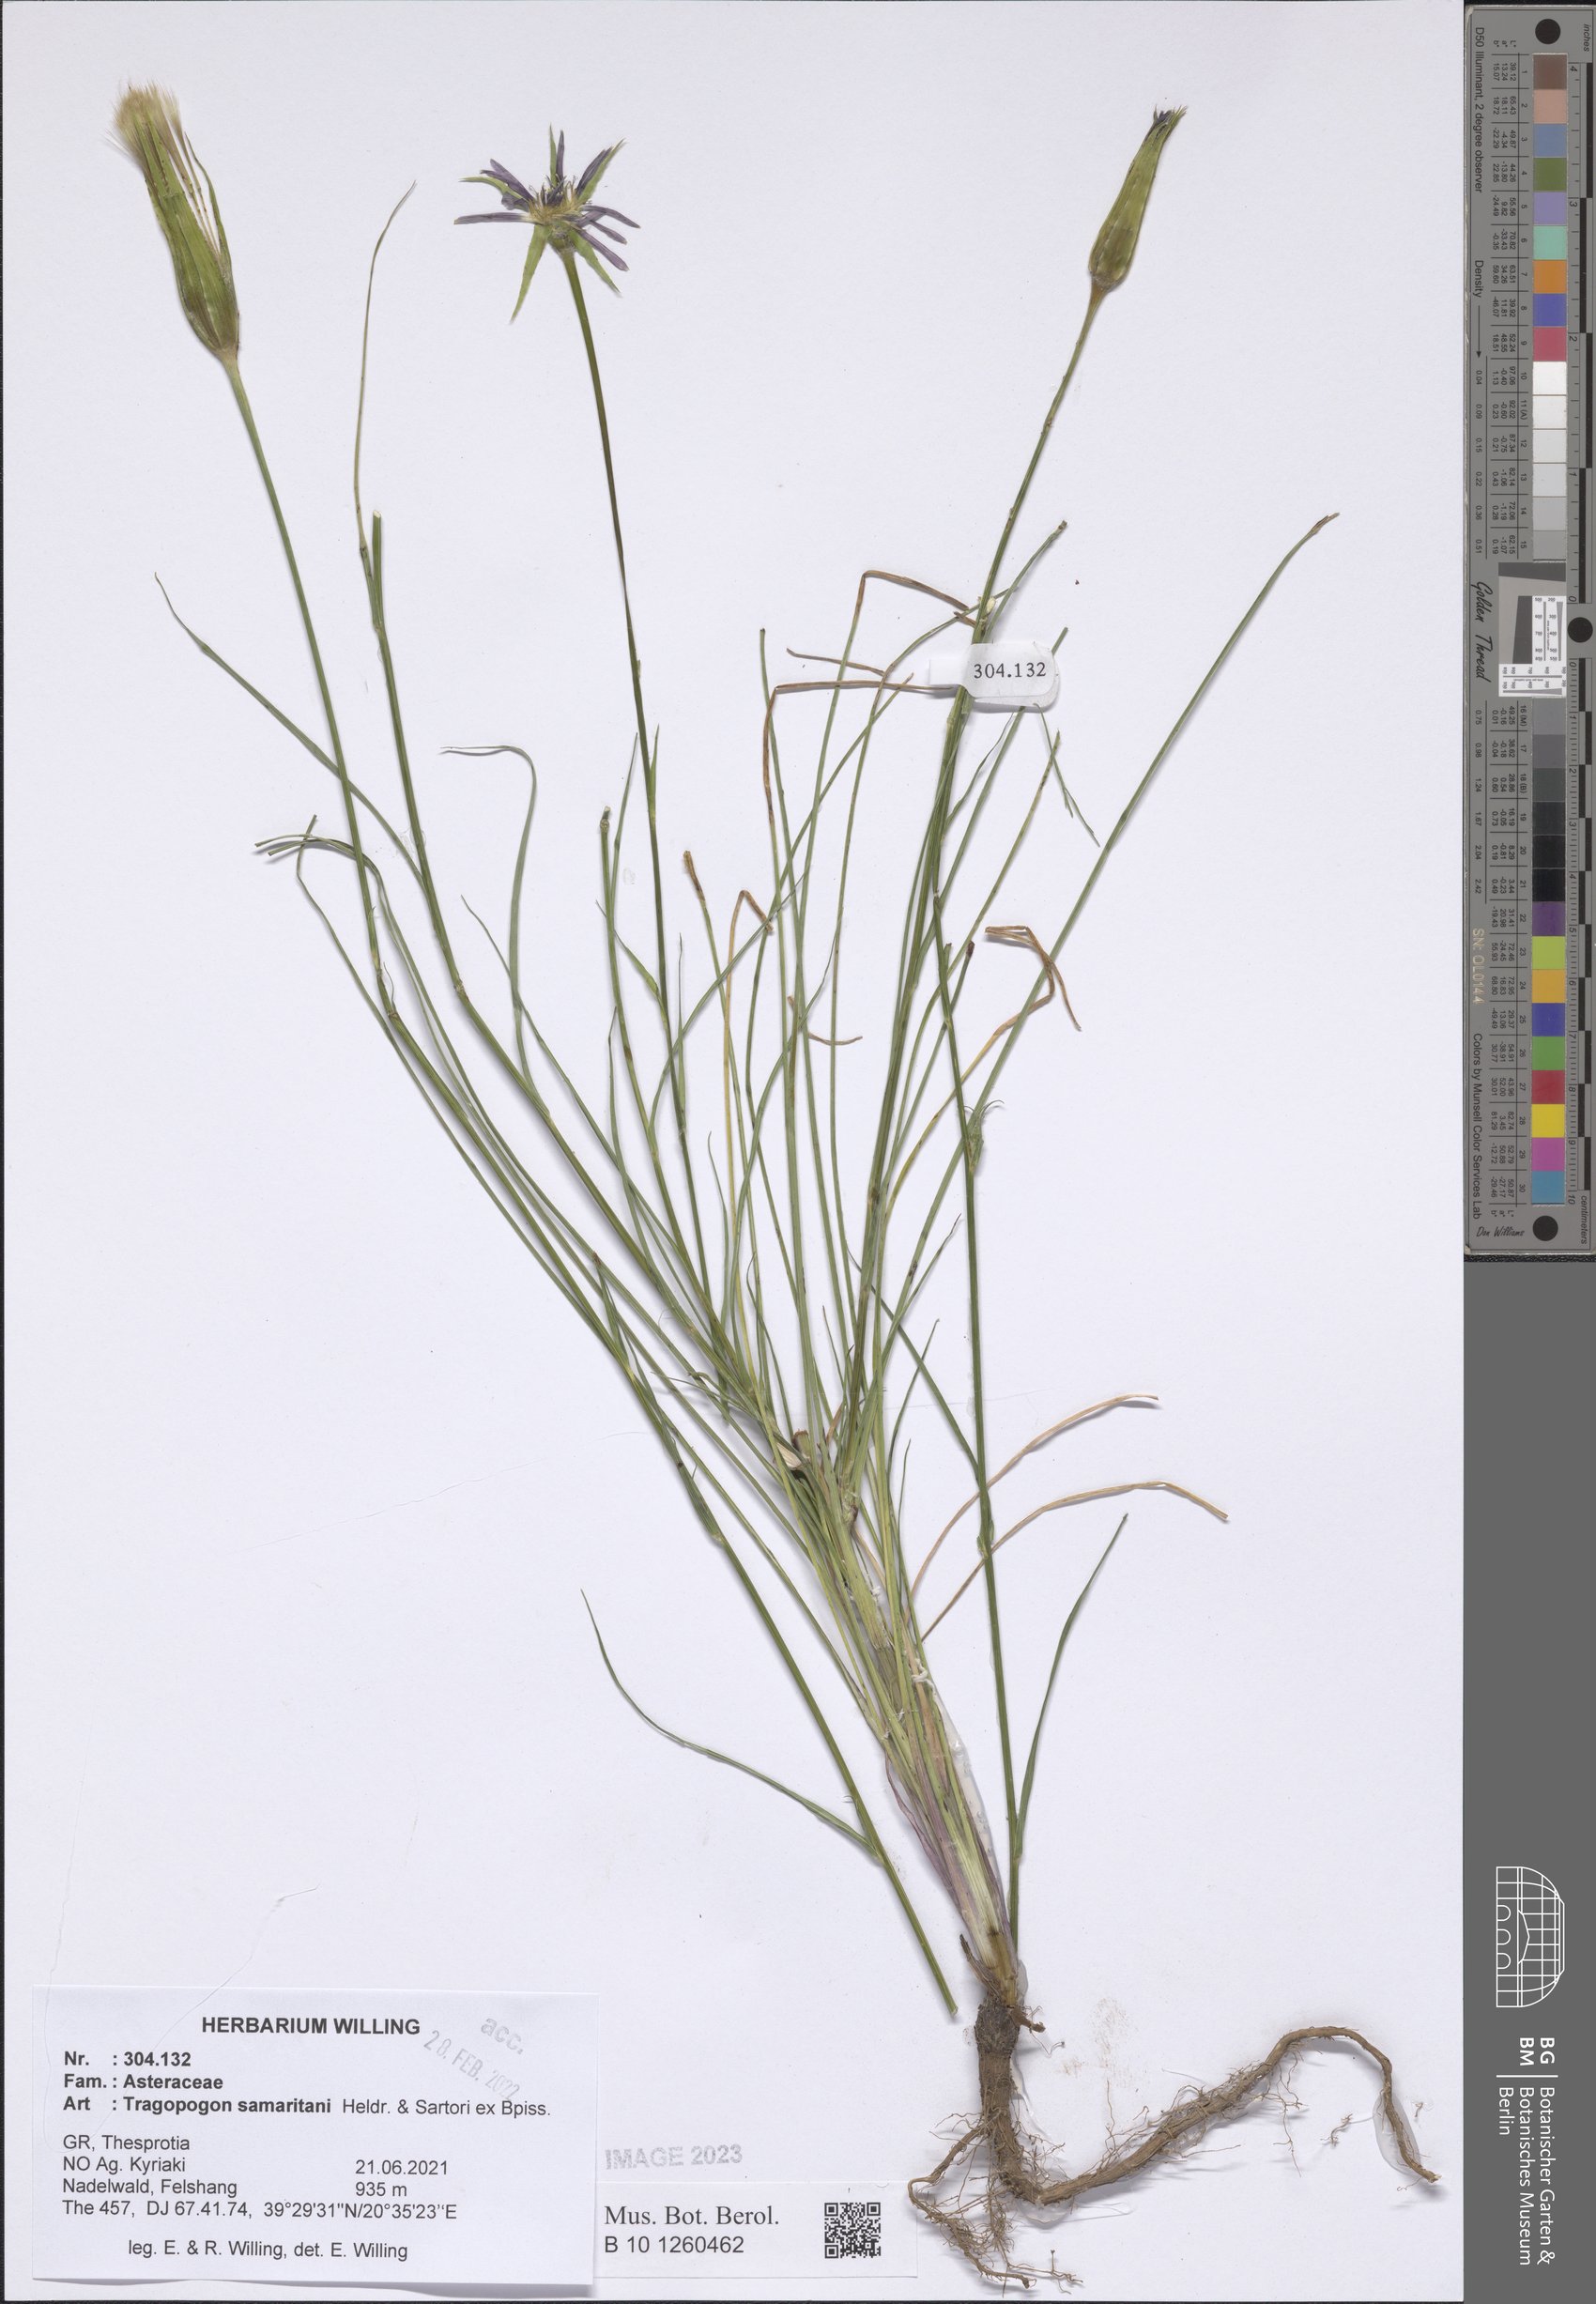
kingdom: Plantae
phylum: Tracheophyta
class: Magnoliopsida
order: Asterales
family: Asteraceae
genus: Tragopogon
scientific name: Tragopogon samaritani
